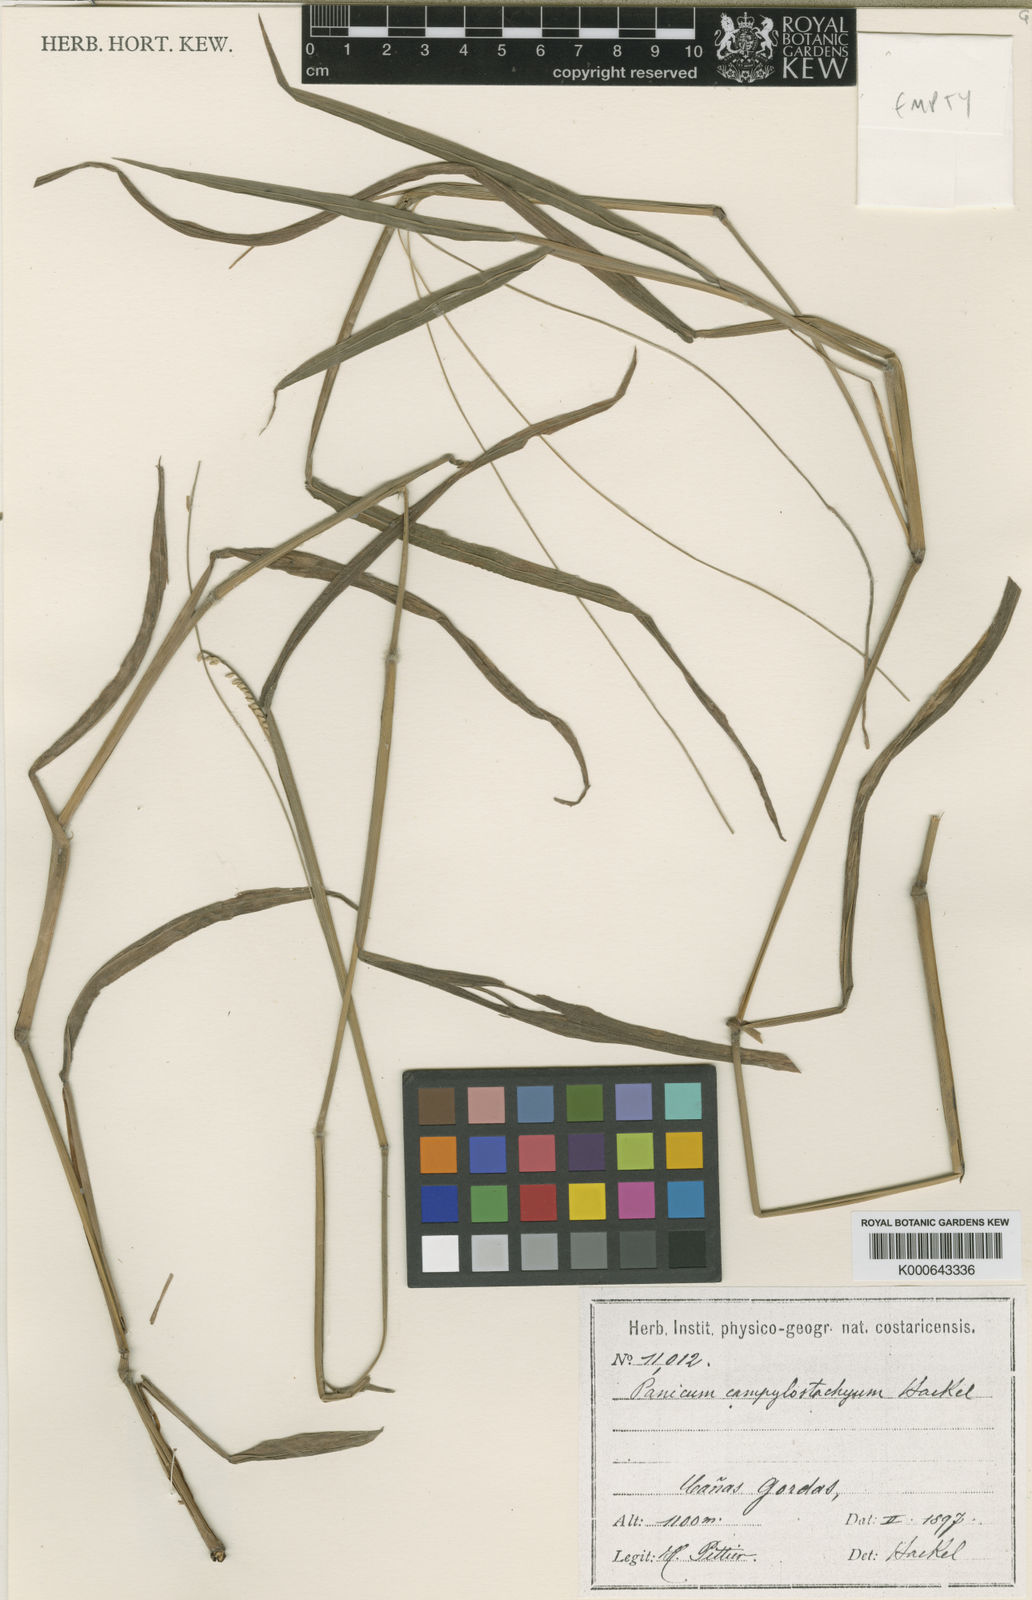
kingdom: Plantae
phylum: Tracheophyta
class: Liliopsida
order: Poales
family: Poaceae
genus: Paspalum
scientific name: Paspalum campylostachyum
